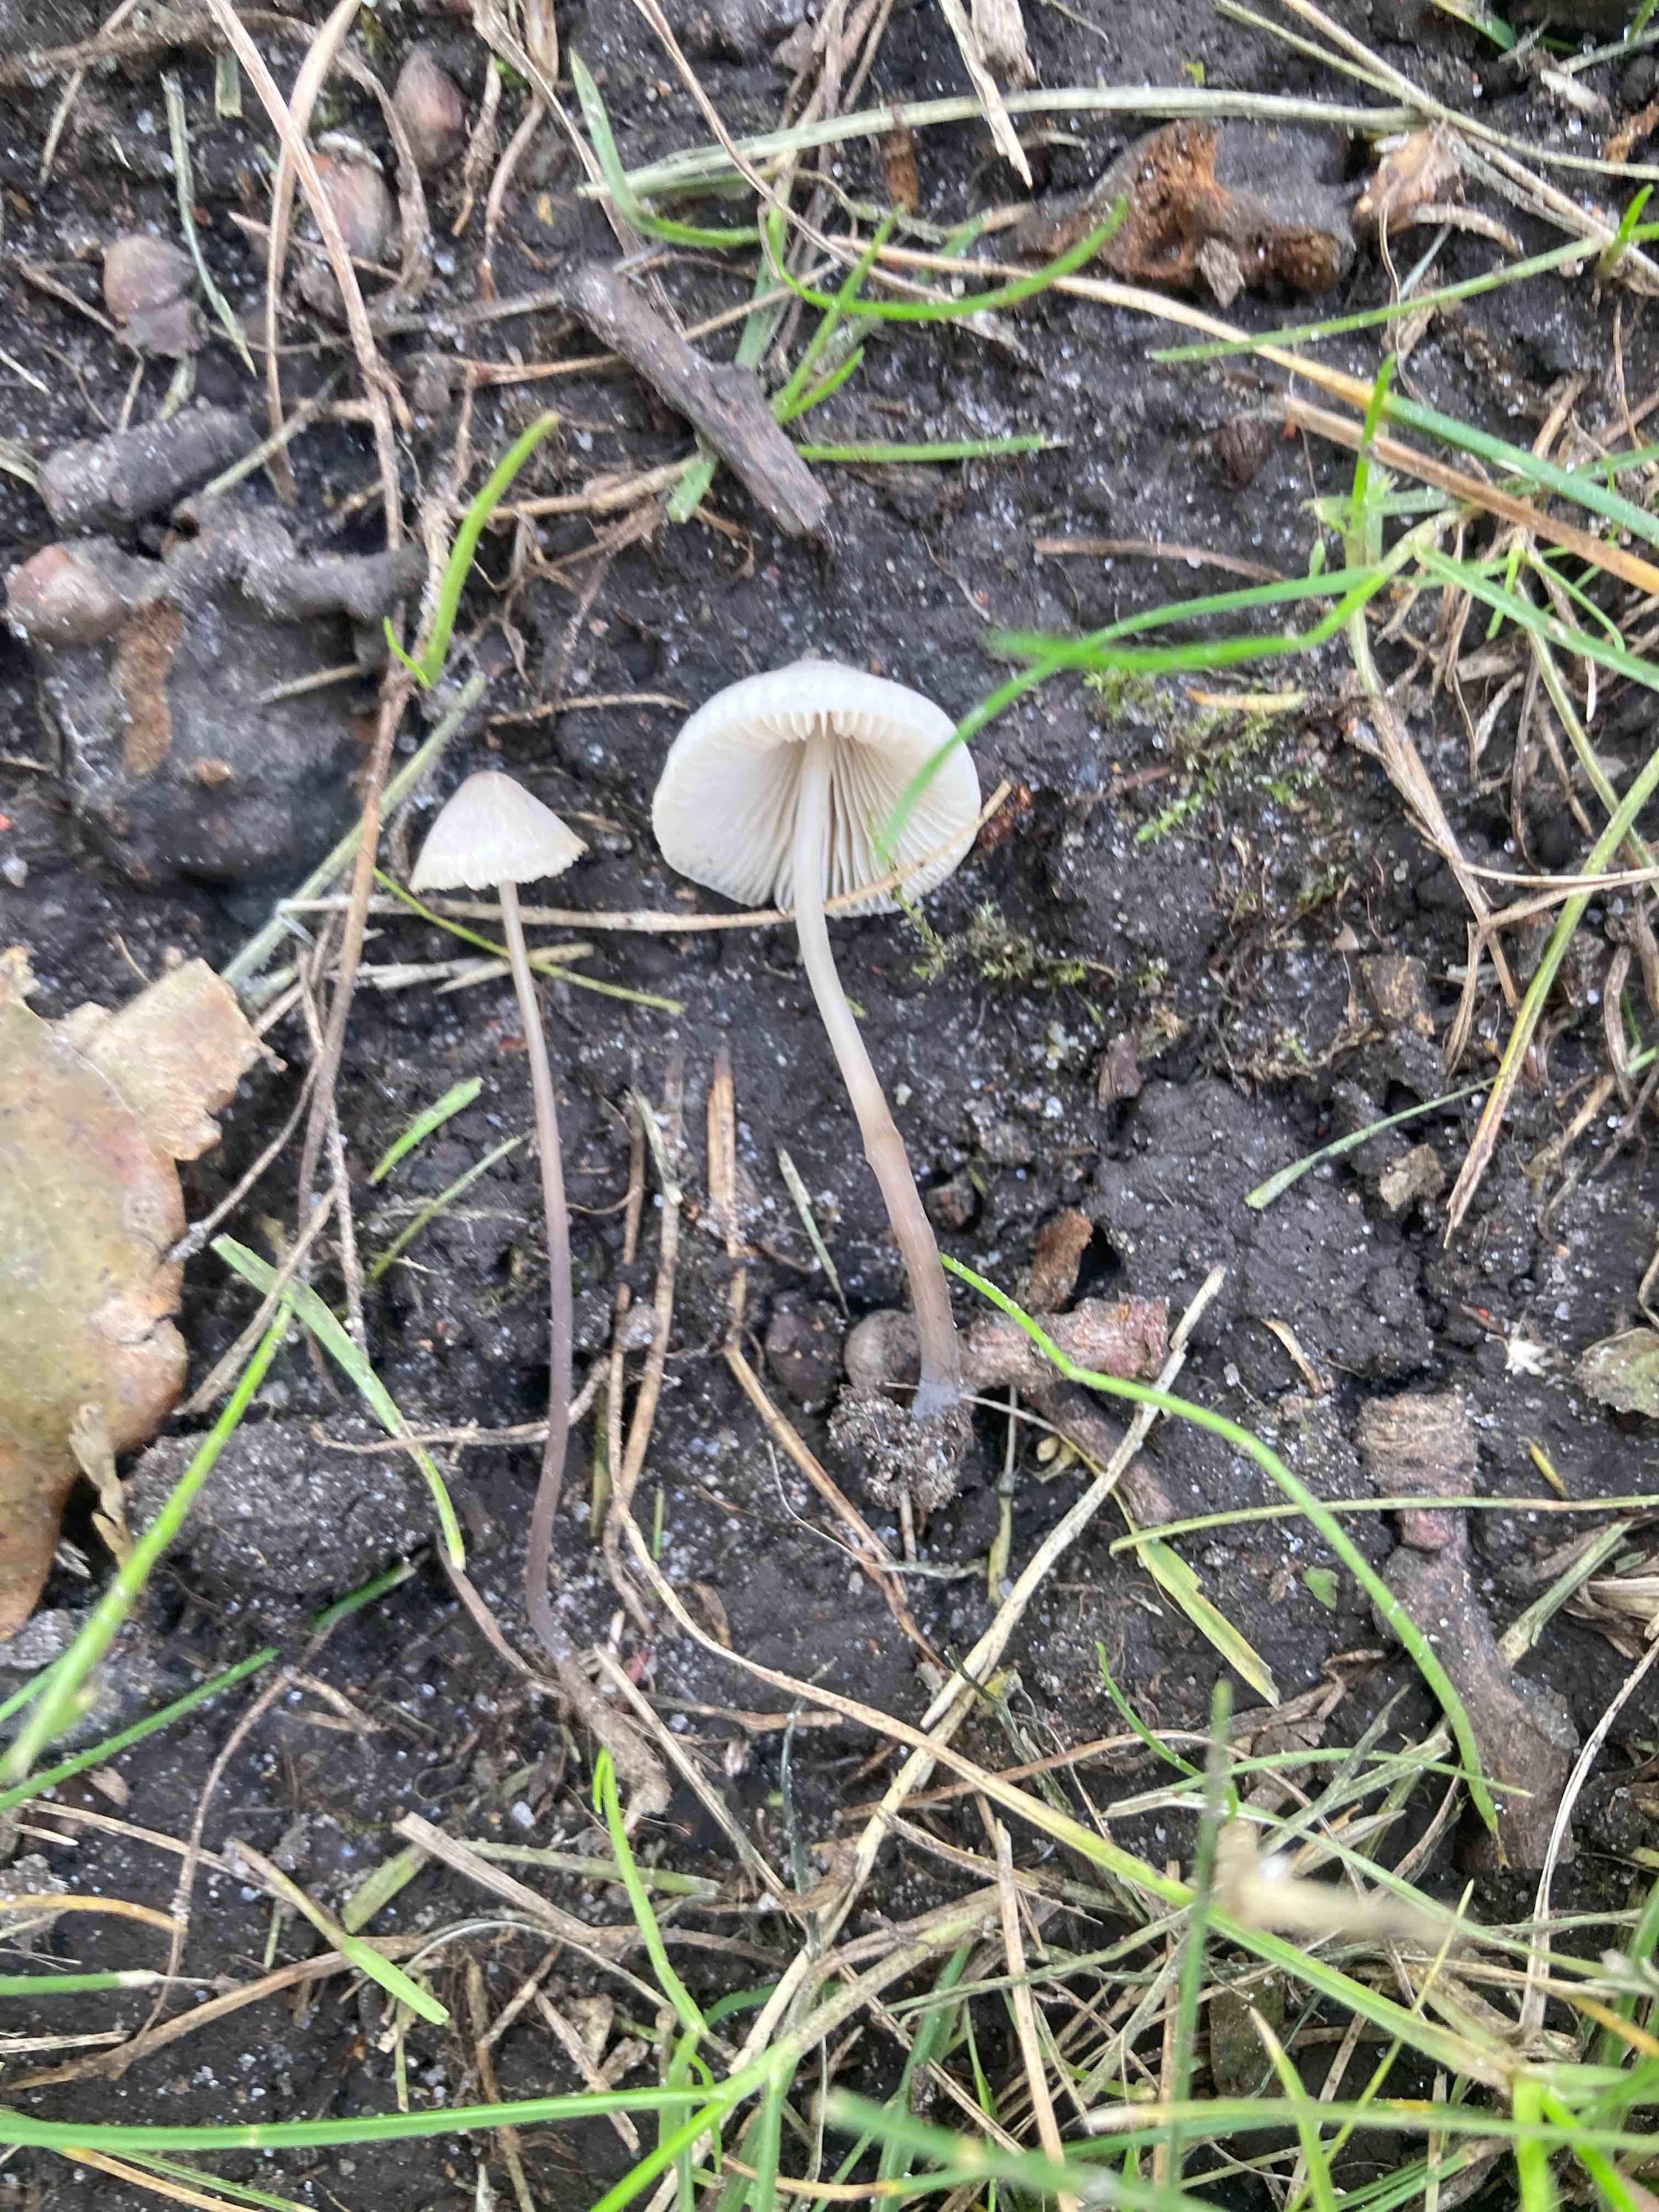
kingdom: Fungi
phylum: Basidiomycota
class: Agaricomycetes
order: Agaricales
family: Mycenaceae
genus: Mycena
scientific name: Mycena filopes
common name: jod-huesvamp
